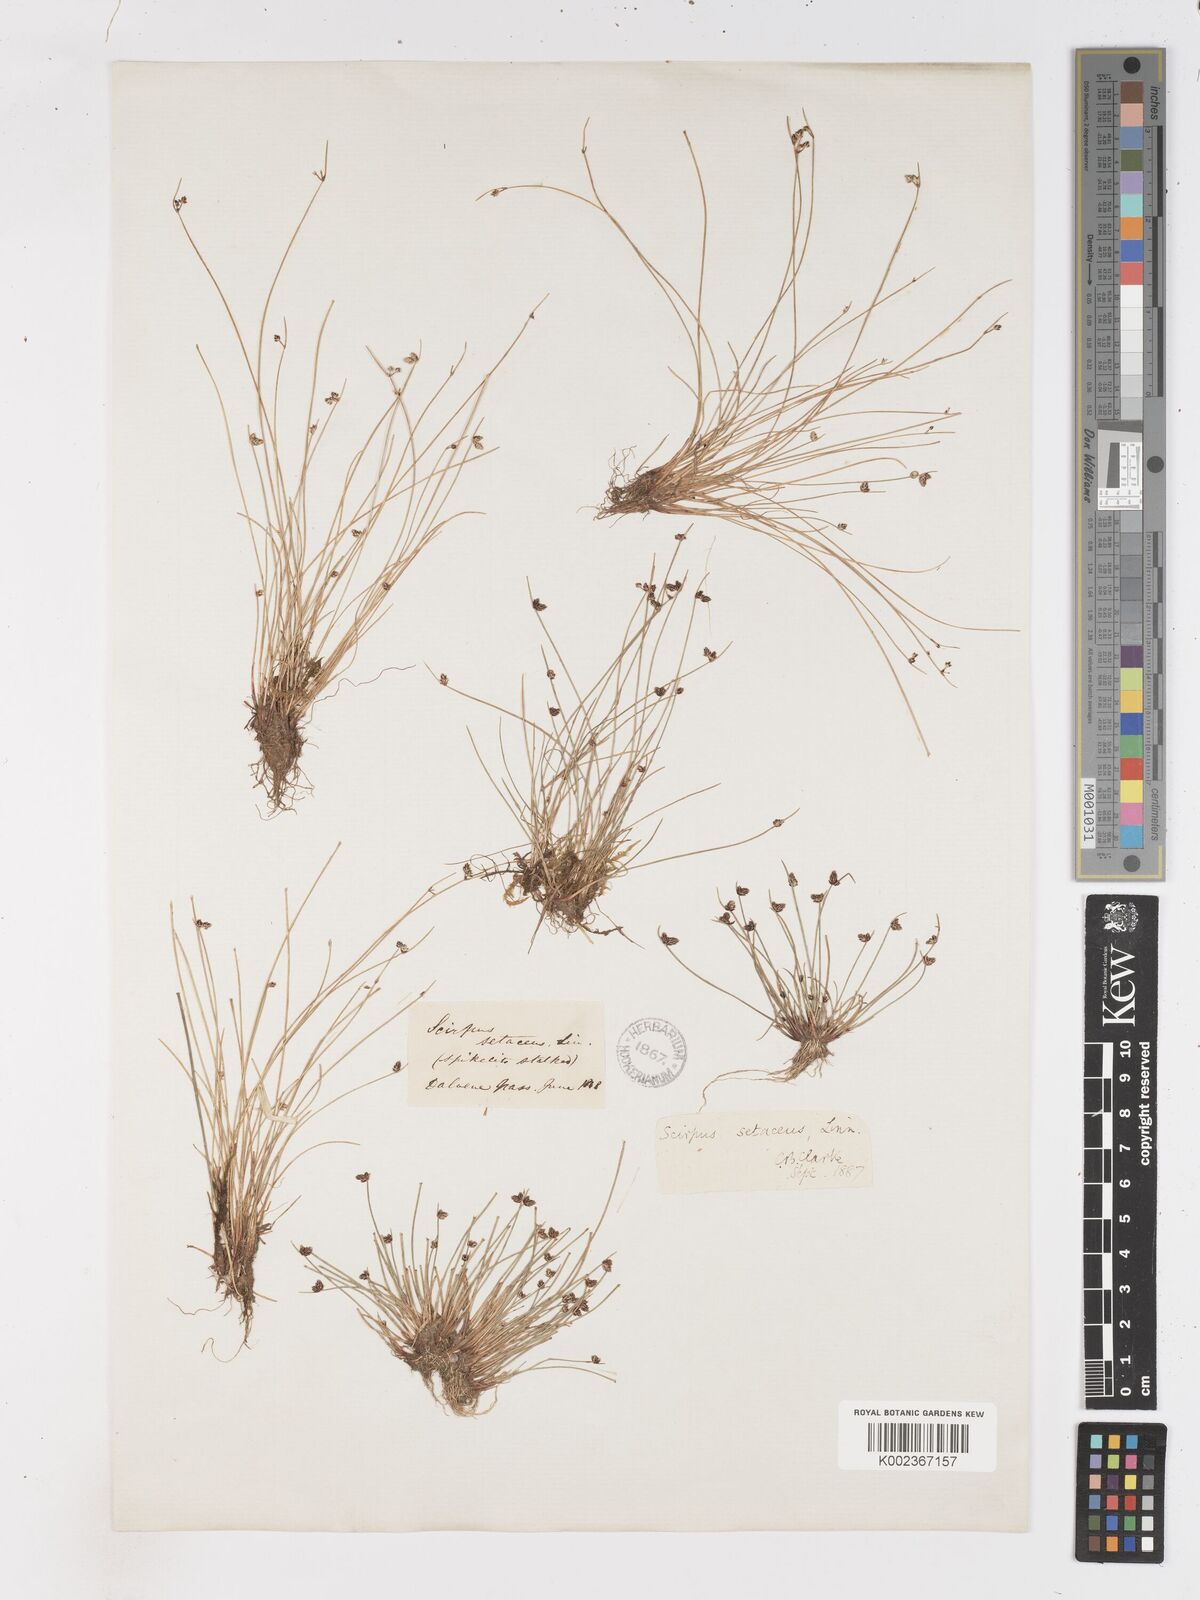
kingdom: Plantae
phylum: Tracheophyta
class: Liliopsida
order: Poales
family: Cyperaceae
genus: Isolepis
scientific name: Isolepis setacea
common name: Bristle club-rush
